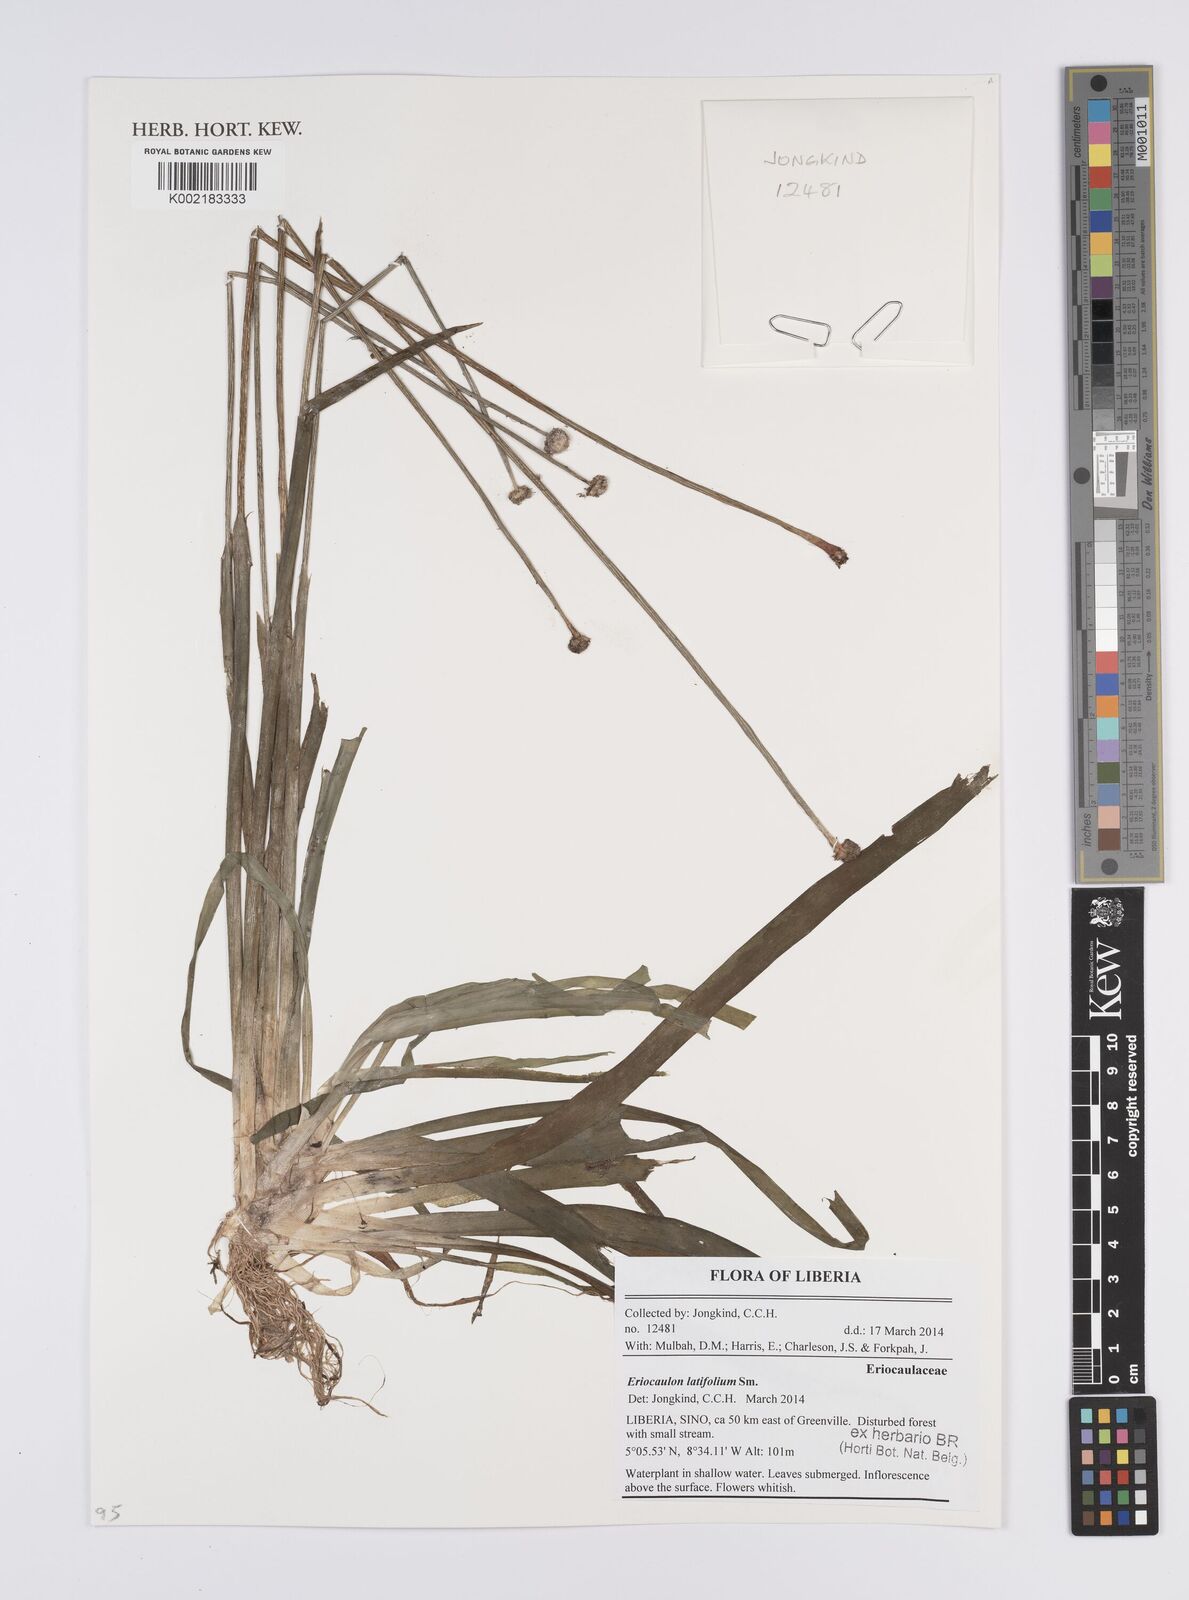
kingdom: Plantae
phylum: Tracheophyta
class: Liliopsida
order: Poales
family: Eriocaulaceae
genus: Eriocaulon
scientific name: Eriocaulon latifolium
